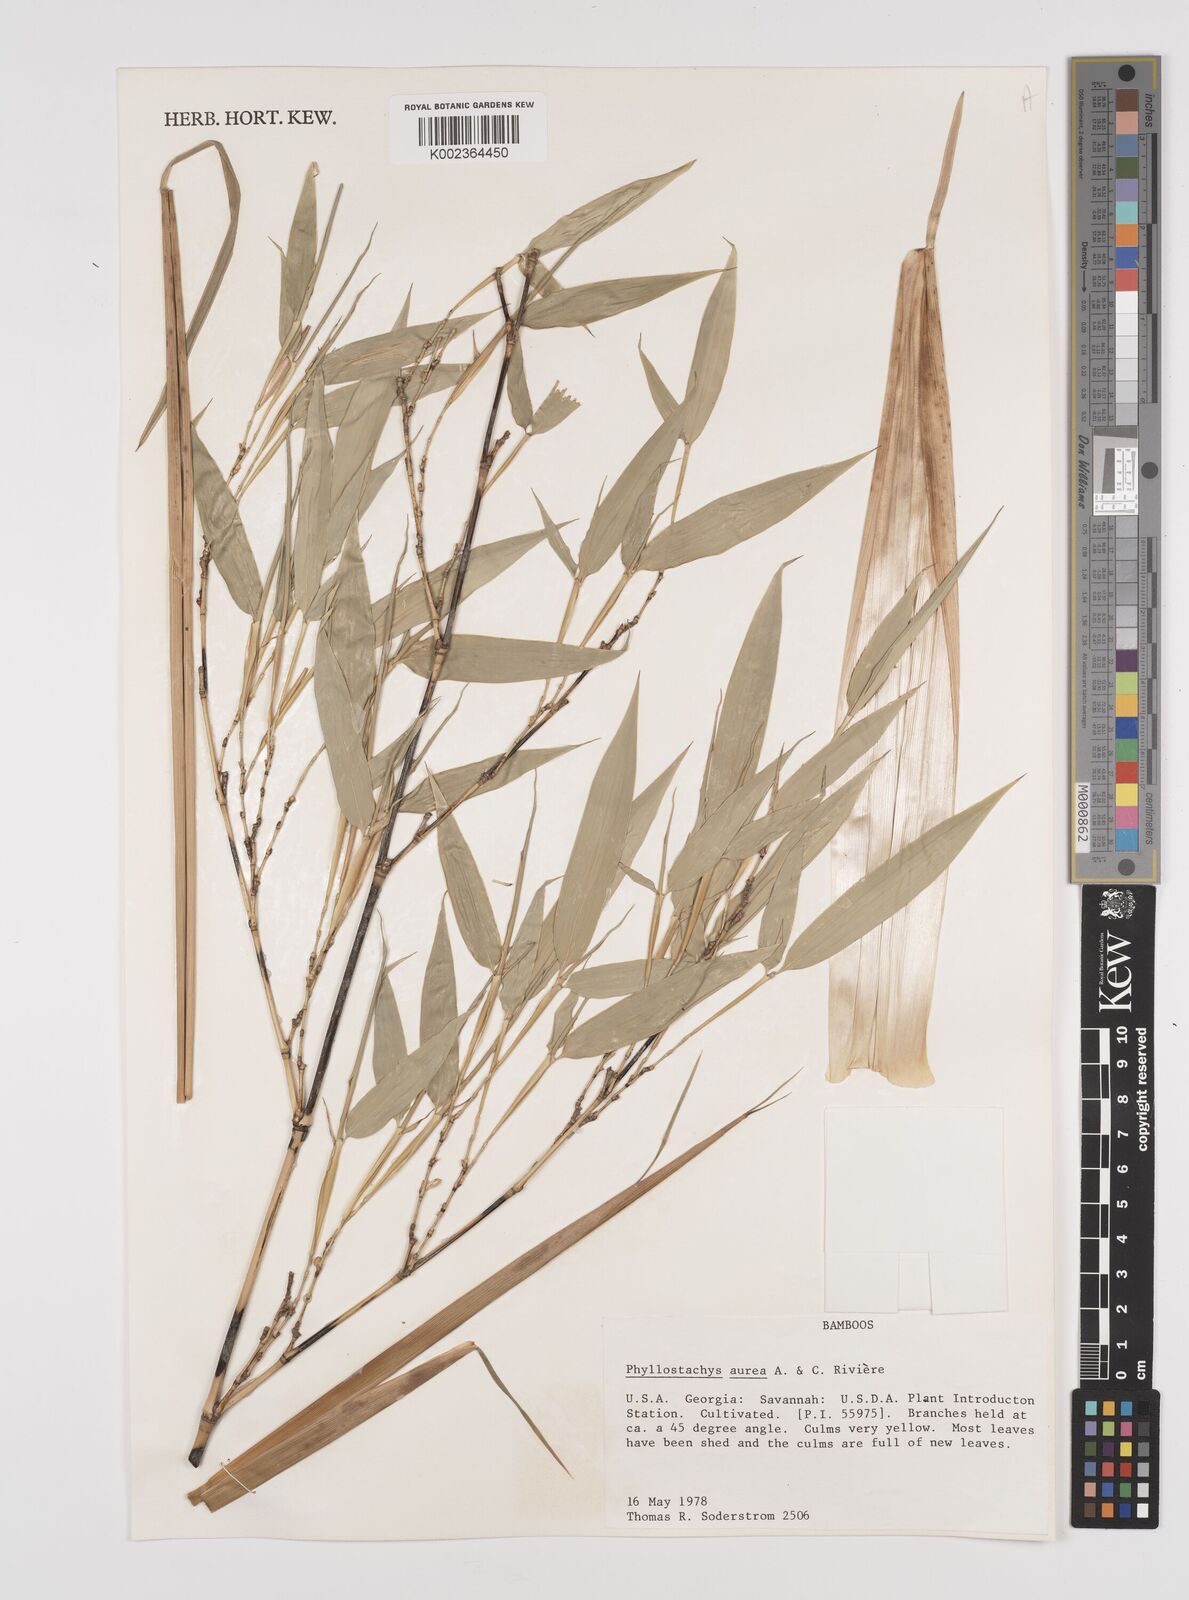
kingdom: Plantae
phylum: Tracheophyta
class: Liliopsida
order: Poales
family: Poaceae
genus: Phyllostachys
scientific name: Phyllostachys aurea
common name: Golden bamboo
